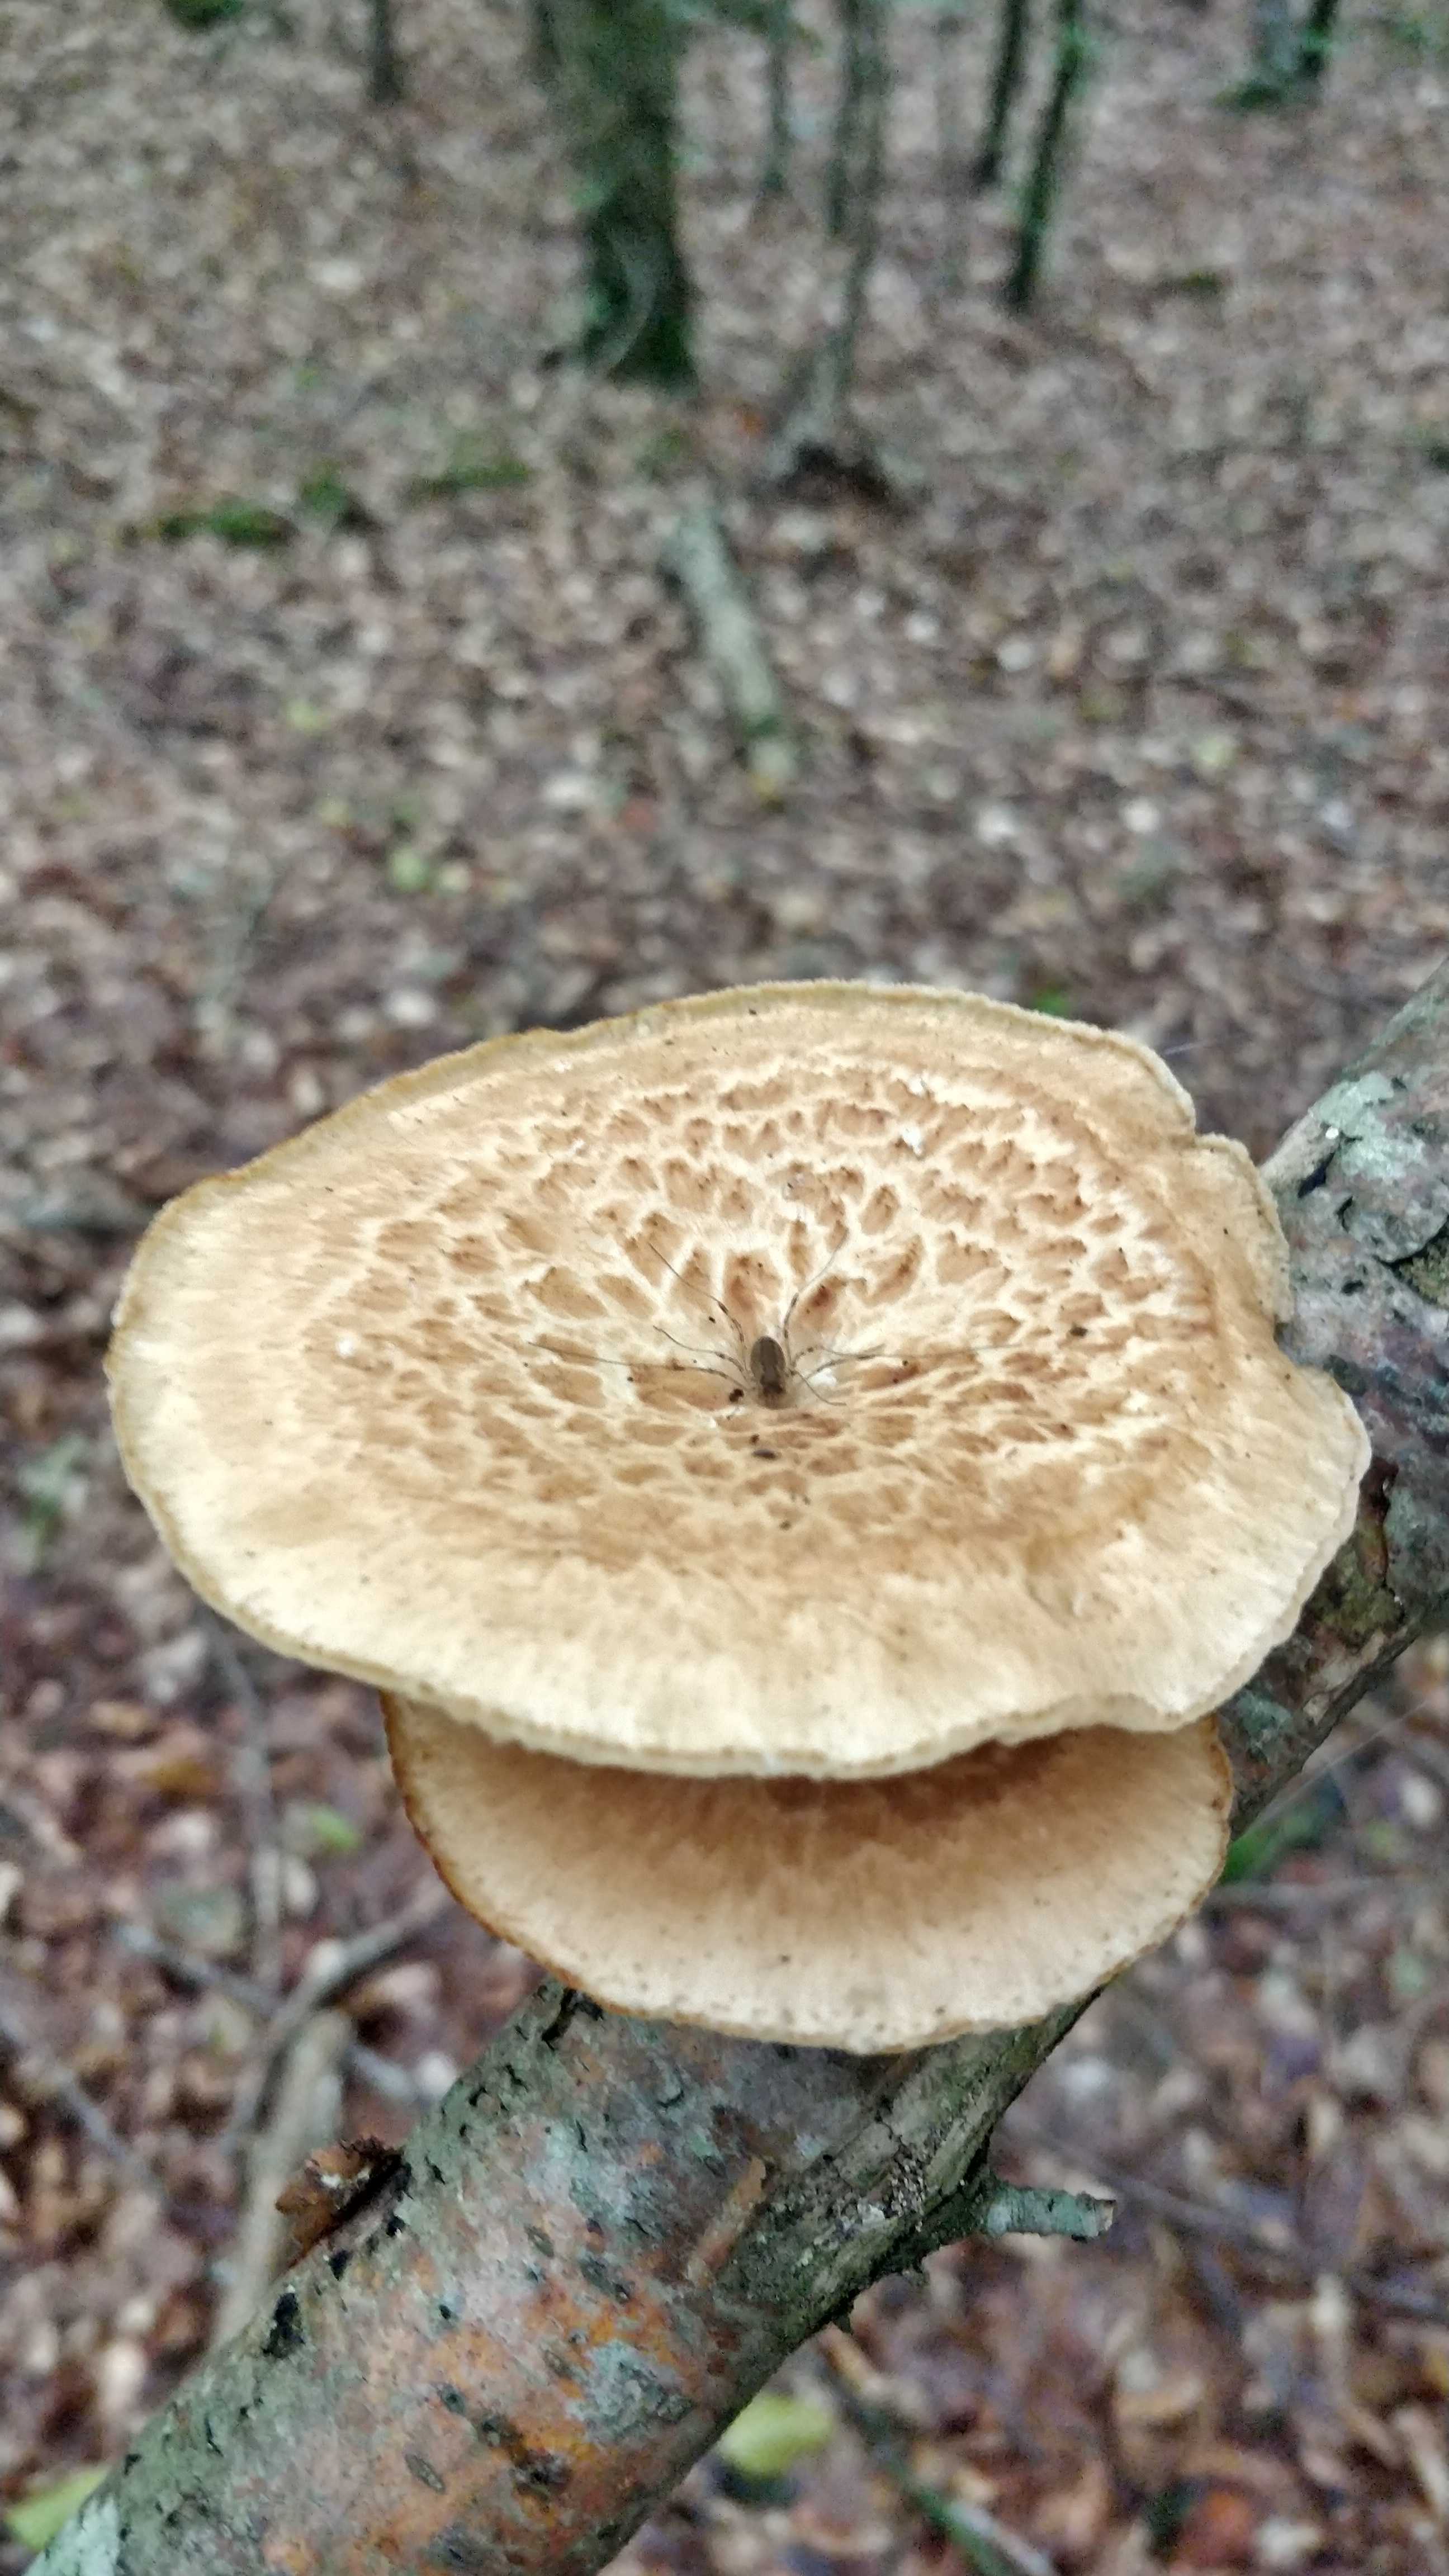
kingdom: Fungi
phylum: Basidiomycota
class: Agaricomycetes
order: Polyporales
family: Polyporaceae
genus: Polyporus
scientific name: Polyporus tuberaster
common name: knoldet stilkporesvamp
